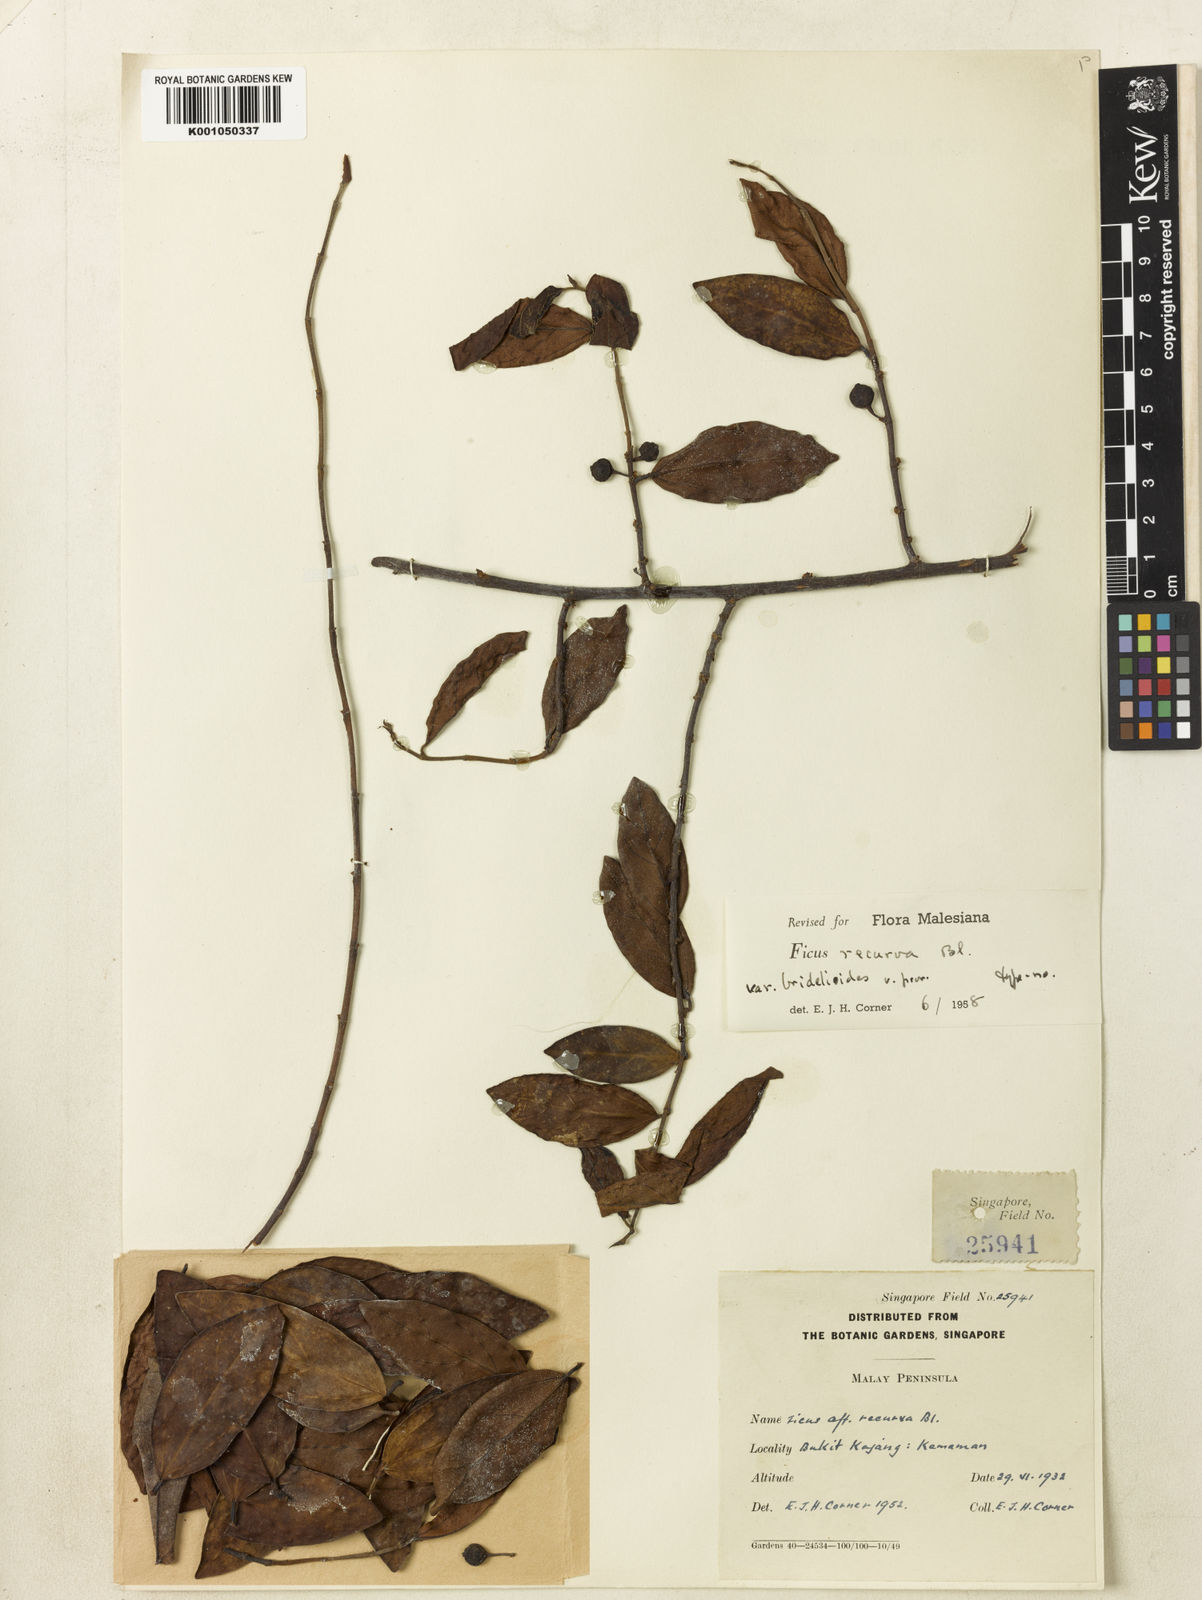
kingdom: Plantae
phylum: Tracheophyta
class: Magnoliopsida
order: Rosales
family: Moraceae
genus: Ficus
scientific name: Ficus recurva
